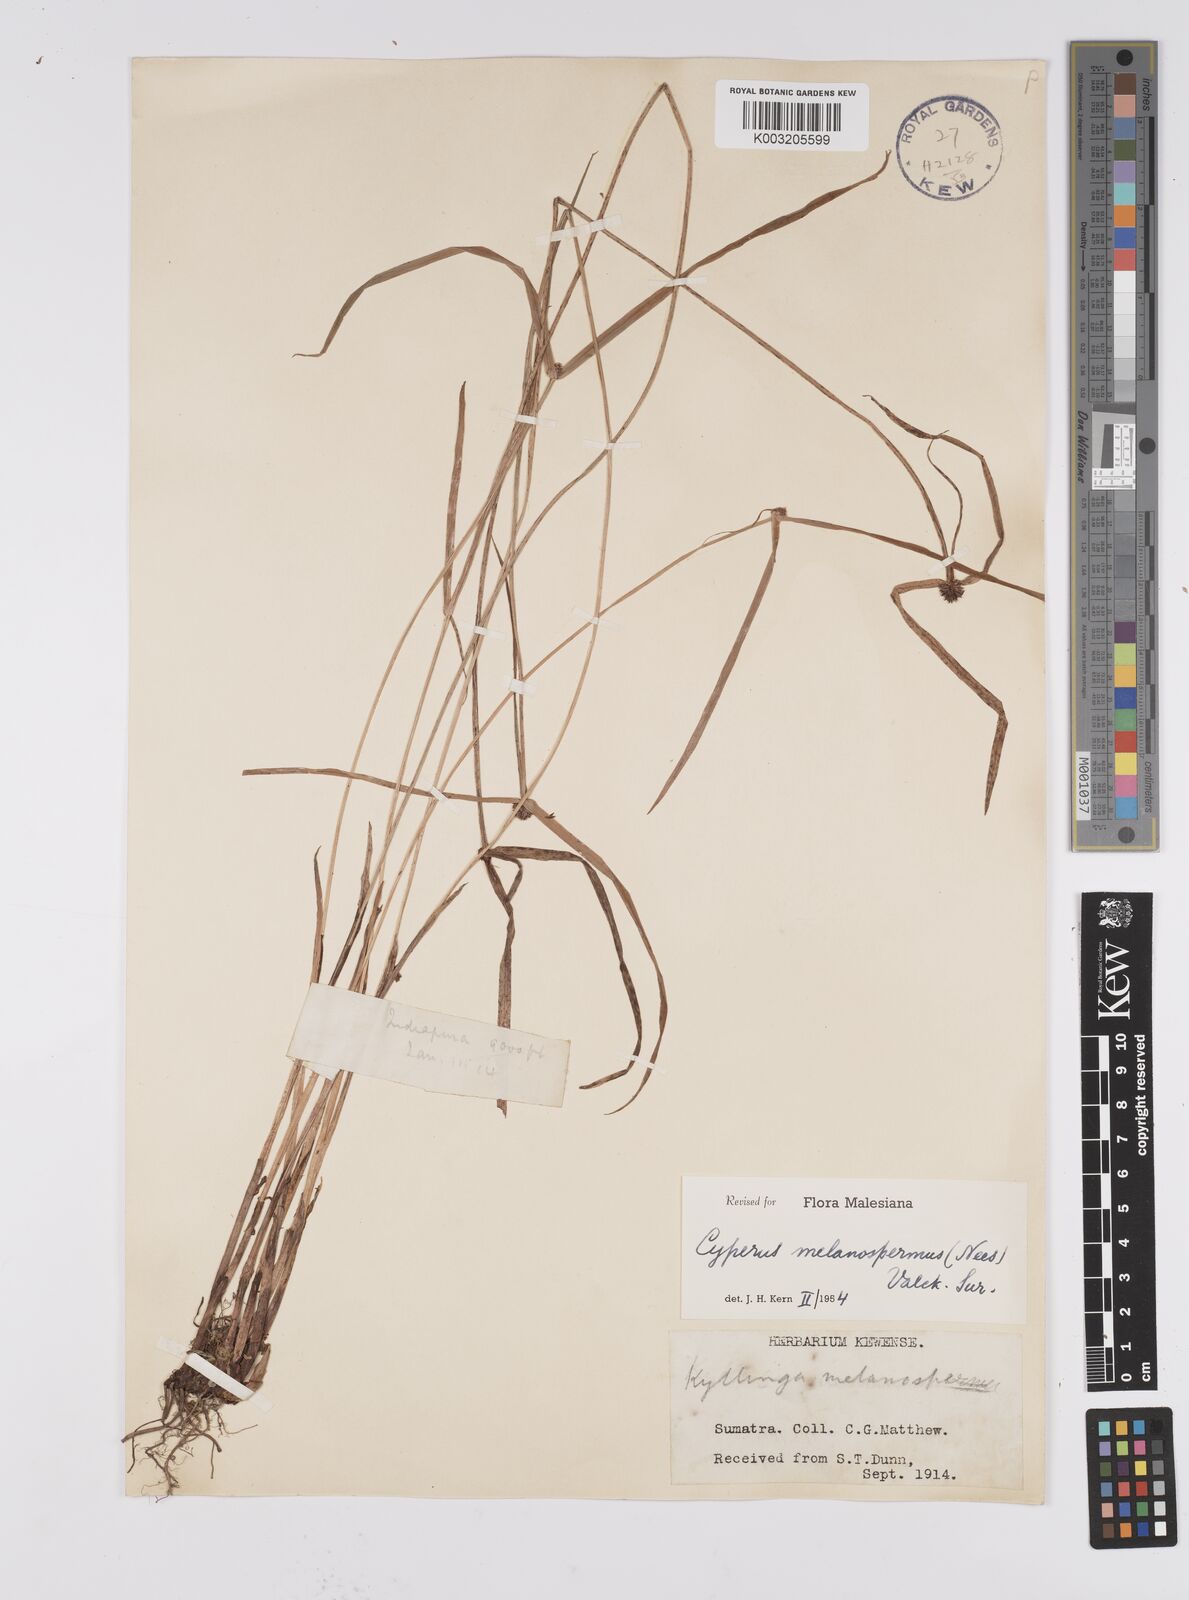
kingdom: Plantae
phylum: Tracheophyta
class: Liliopsida
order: Poales
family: Cyperaceae
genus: Cyperus
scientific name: Cyperus melanospermus
